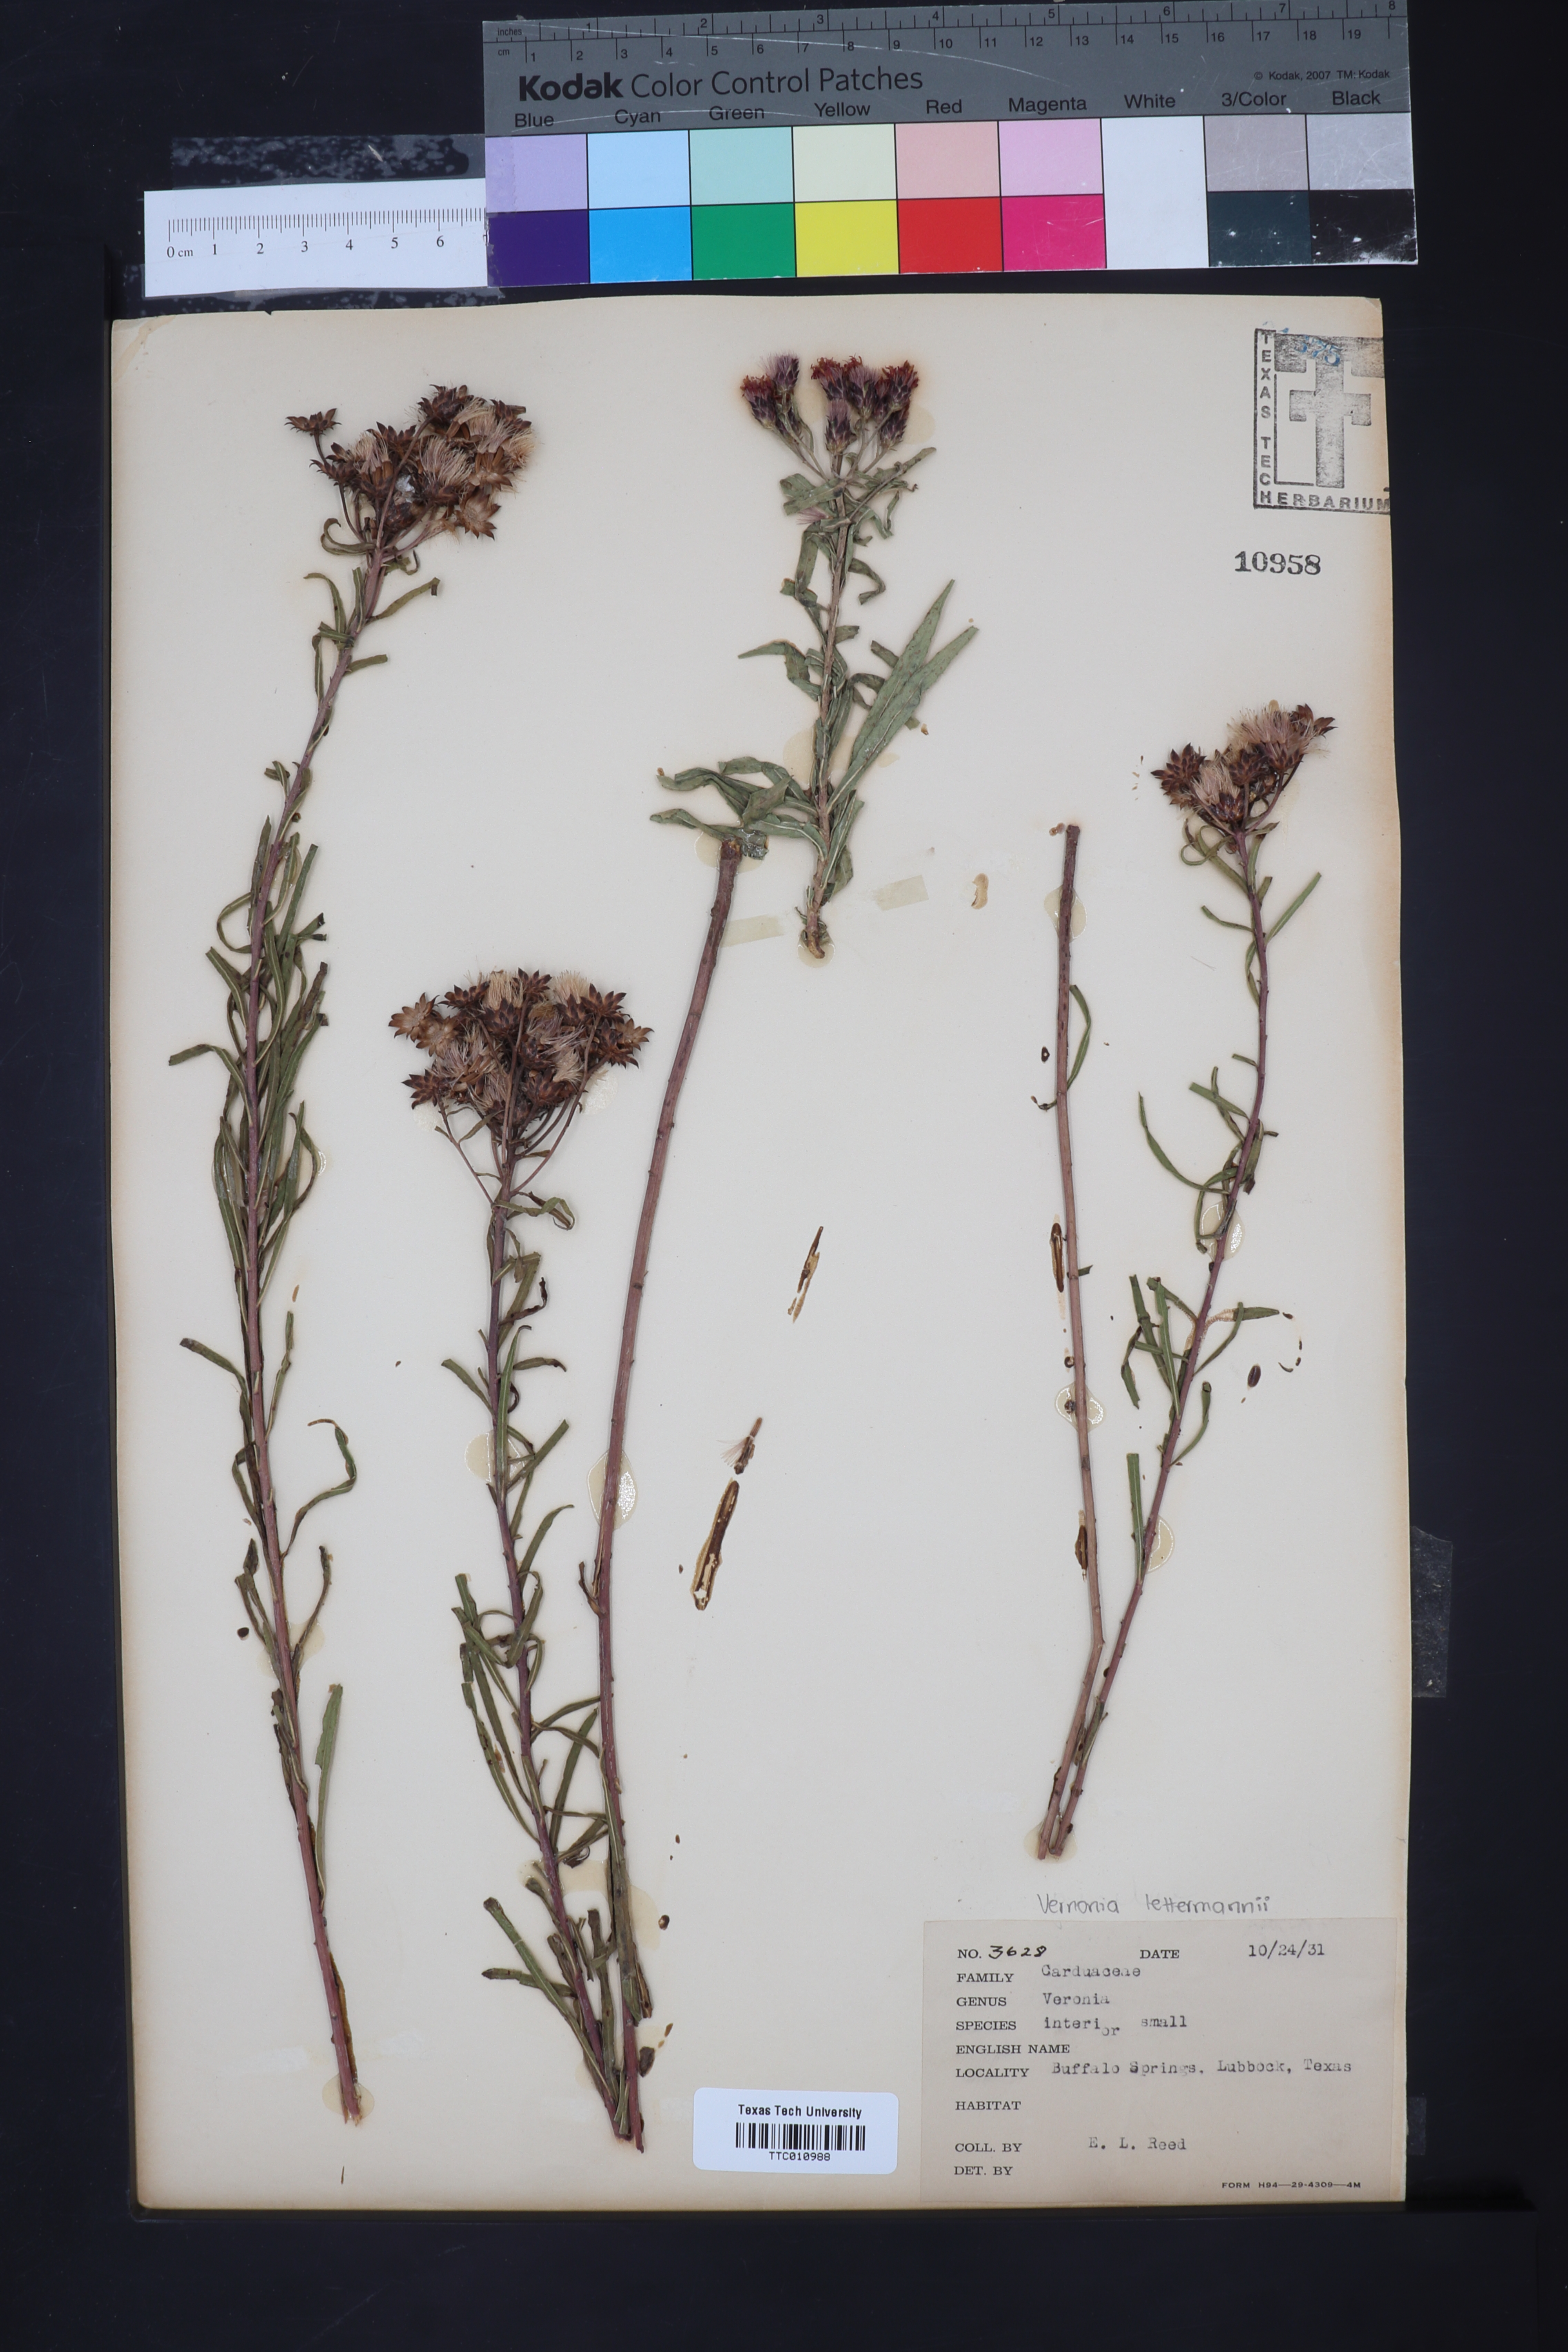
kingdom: Plantae
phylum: Tracheophyta
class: Magnoliopsida
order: Asterales
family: Asteraceae
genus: Vernonia
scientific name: Vernonia baldwinii
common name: Western ironweed
